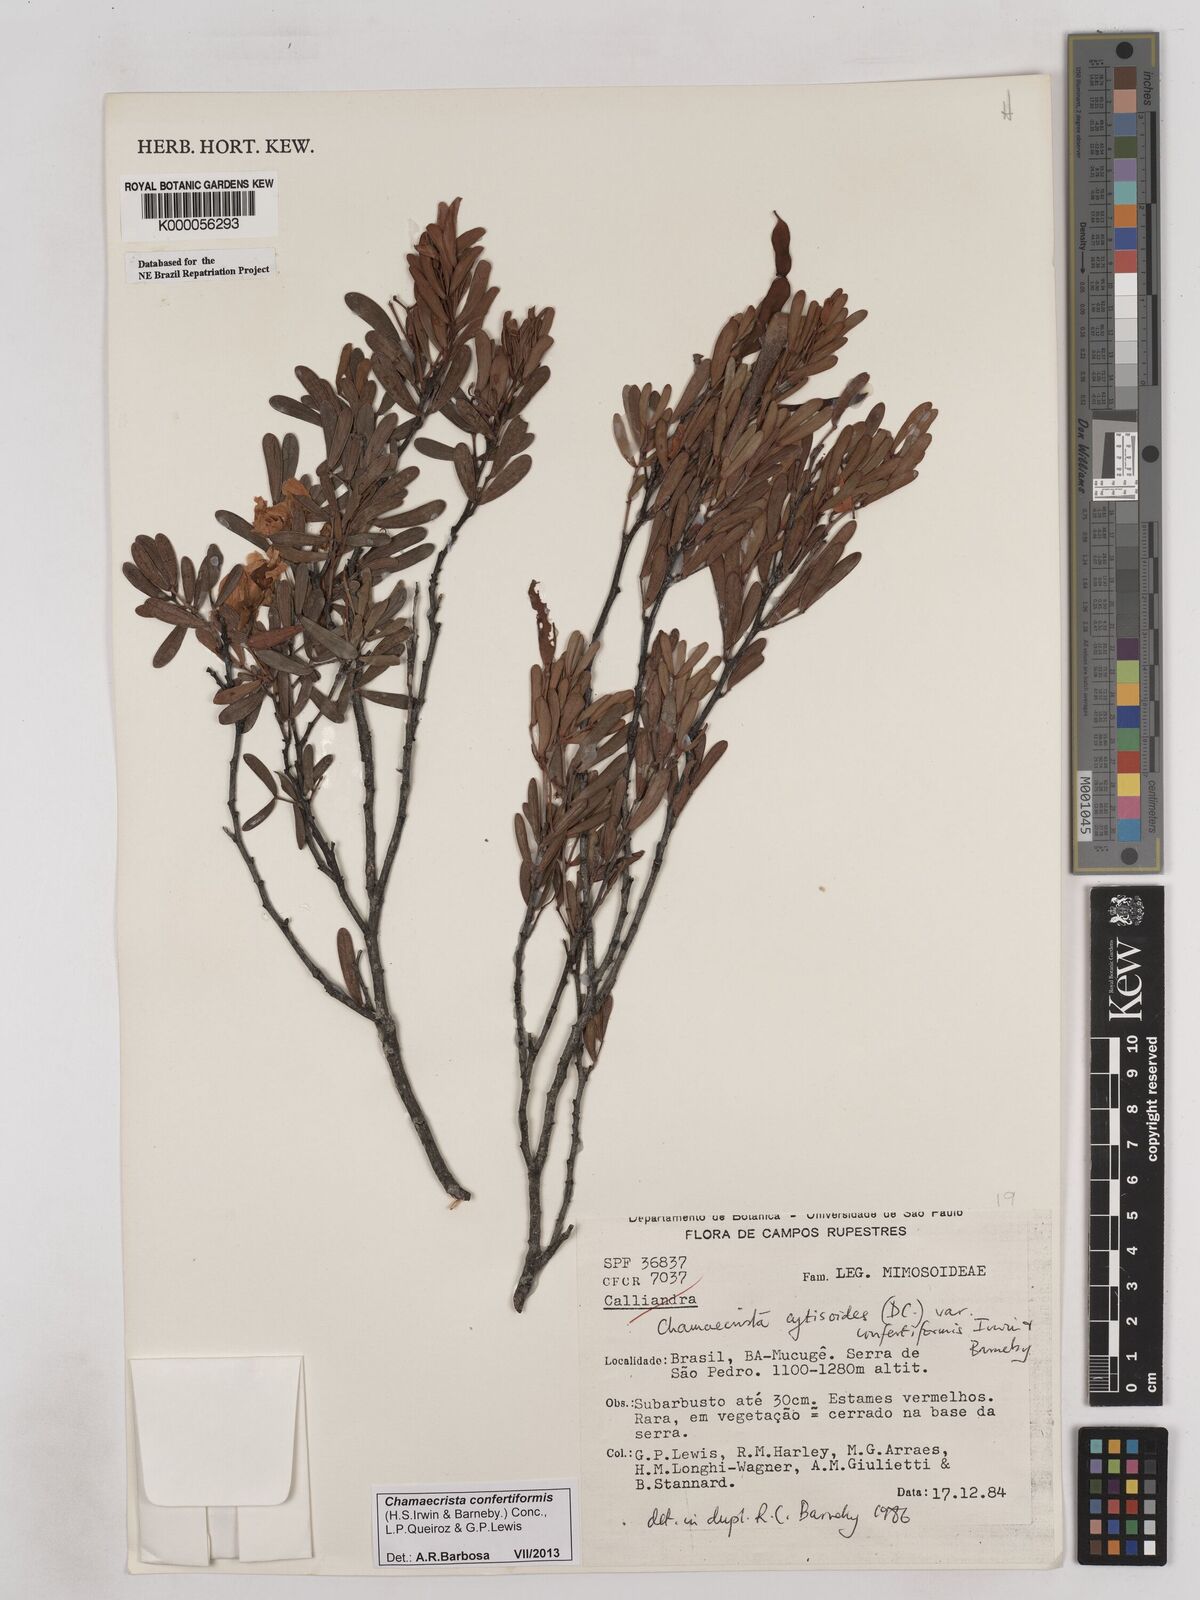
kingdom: Plantae
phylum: Tracheophyta
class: Magnoliopsida
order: Fabales
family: Fabaceae
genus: Chamaecrista
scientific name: Chamaecrista confertiformis
